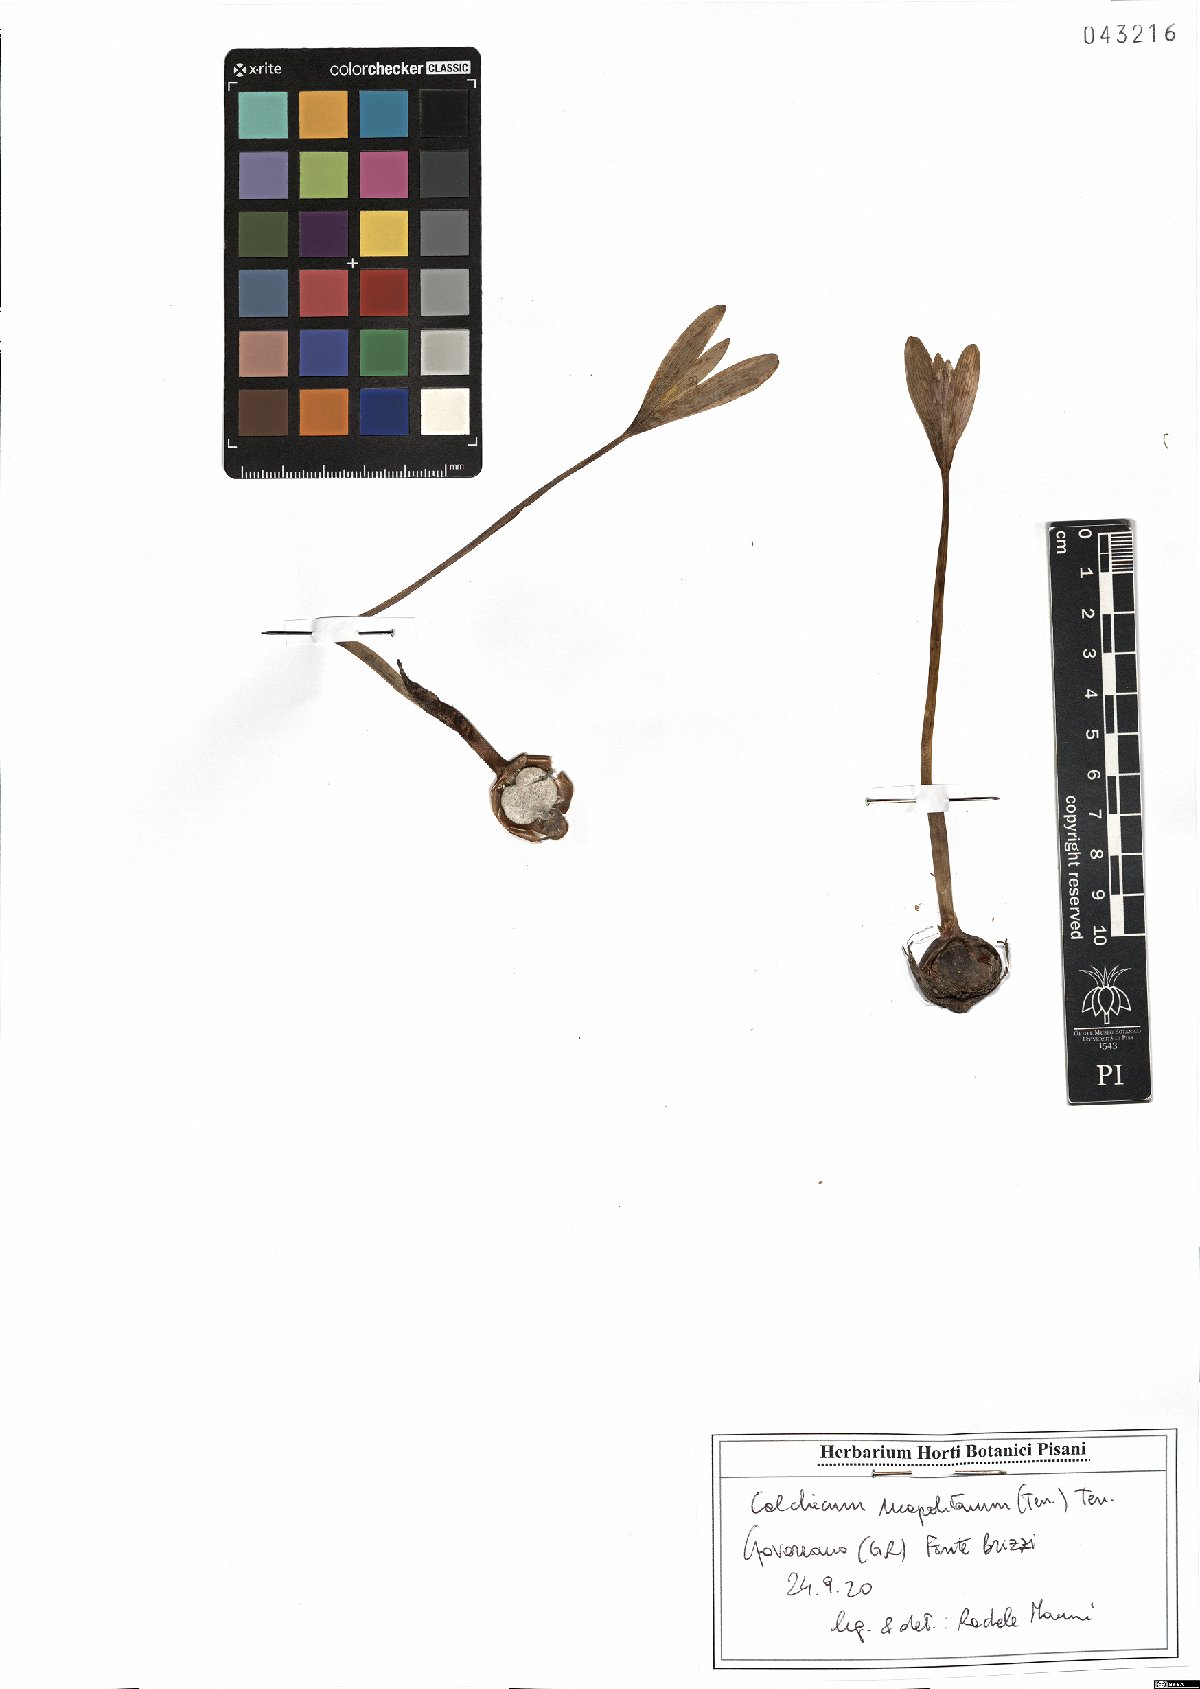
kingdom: Plantae
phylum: Tracheophyta
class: Liliopsida
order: Liliales
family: Colchicaceae
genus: Colchicum
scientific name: Colchicum neapolitanum
